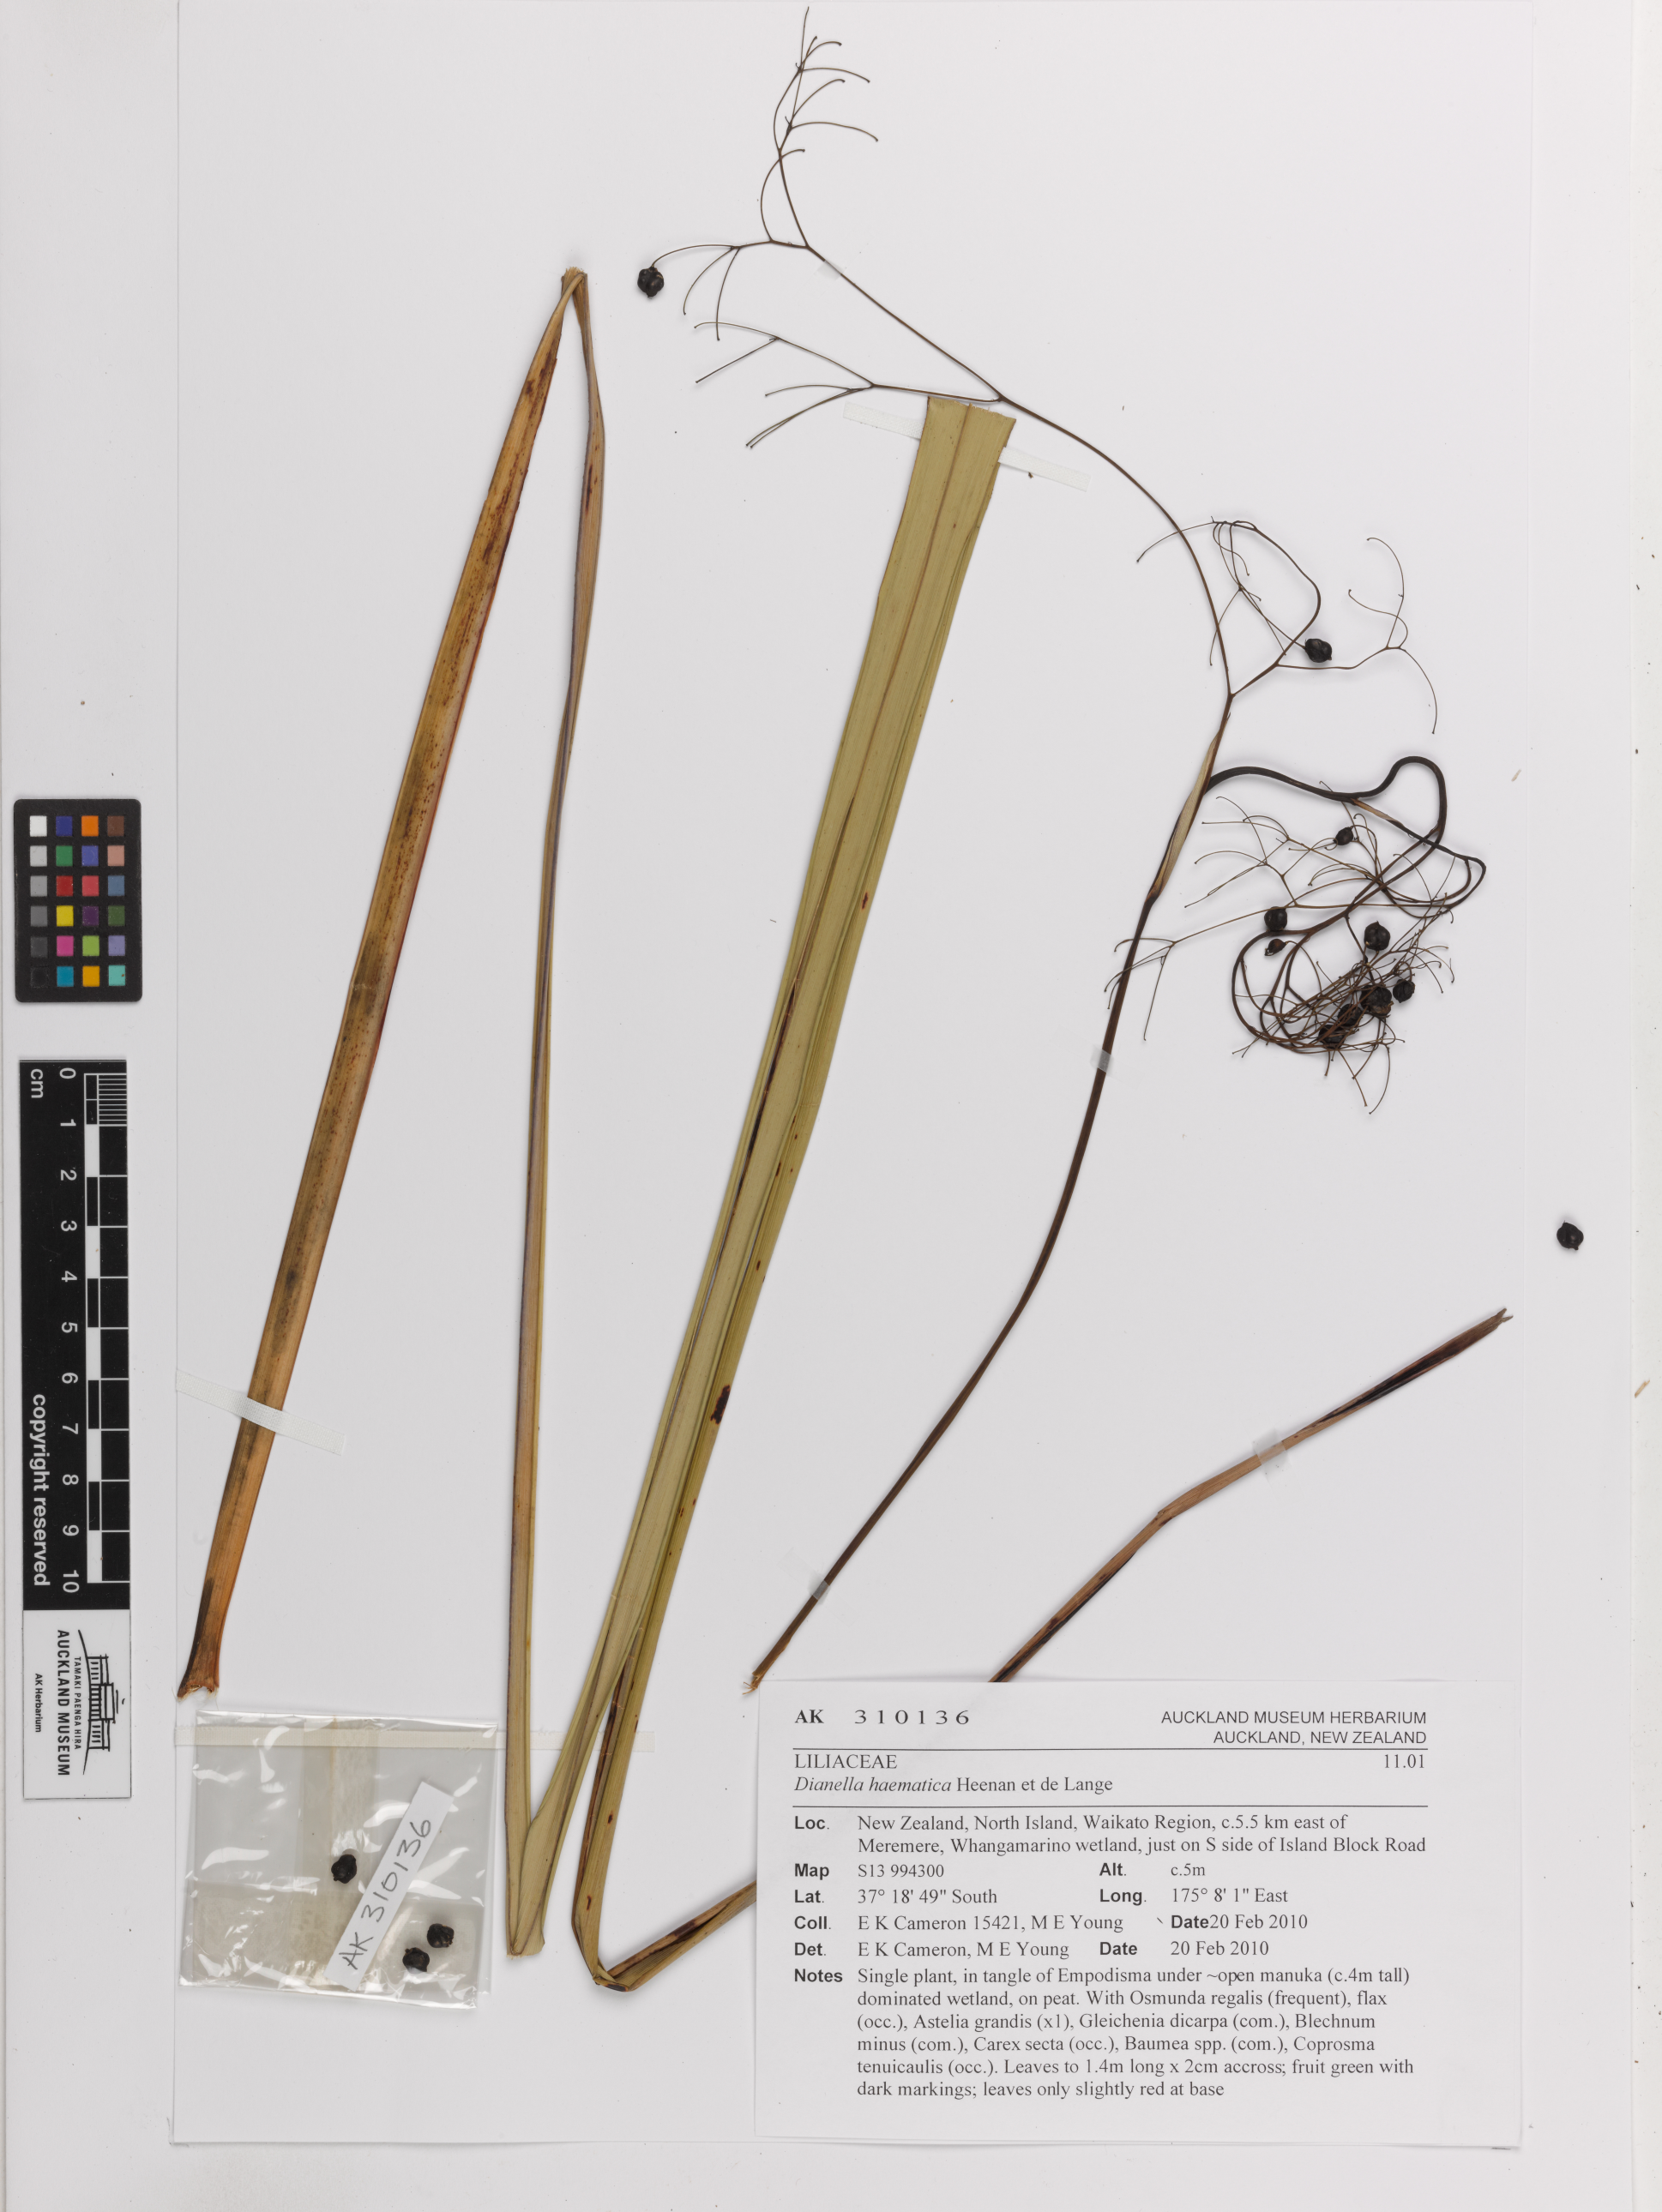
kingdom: Plantae
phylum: Tracheophyta
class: Liliopsida
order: Asparagales
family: Asphodelaceae
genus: Dianella
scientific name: Dianella haematica
